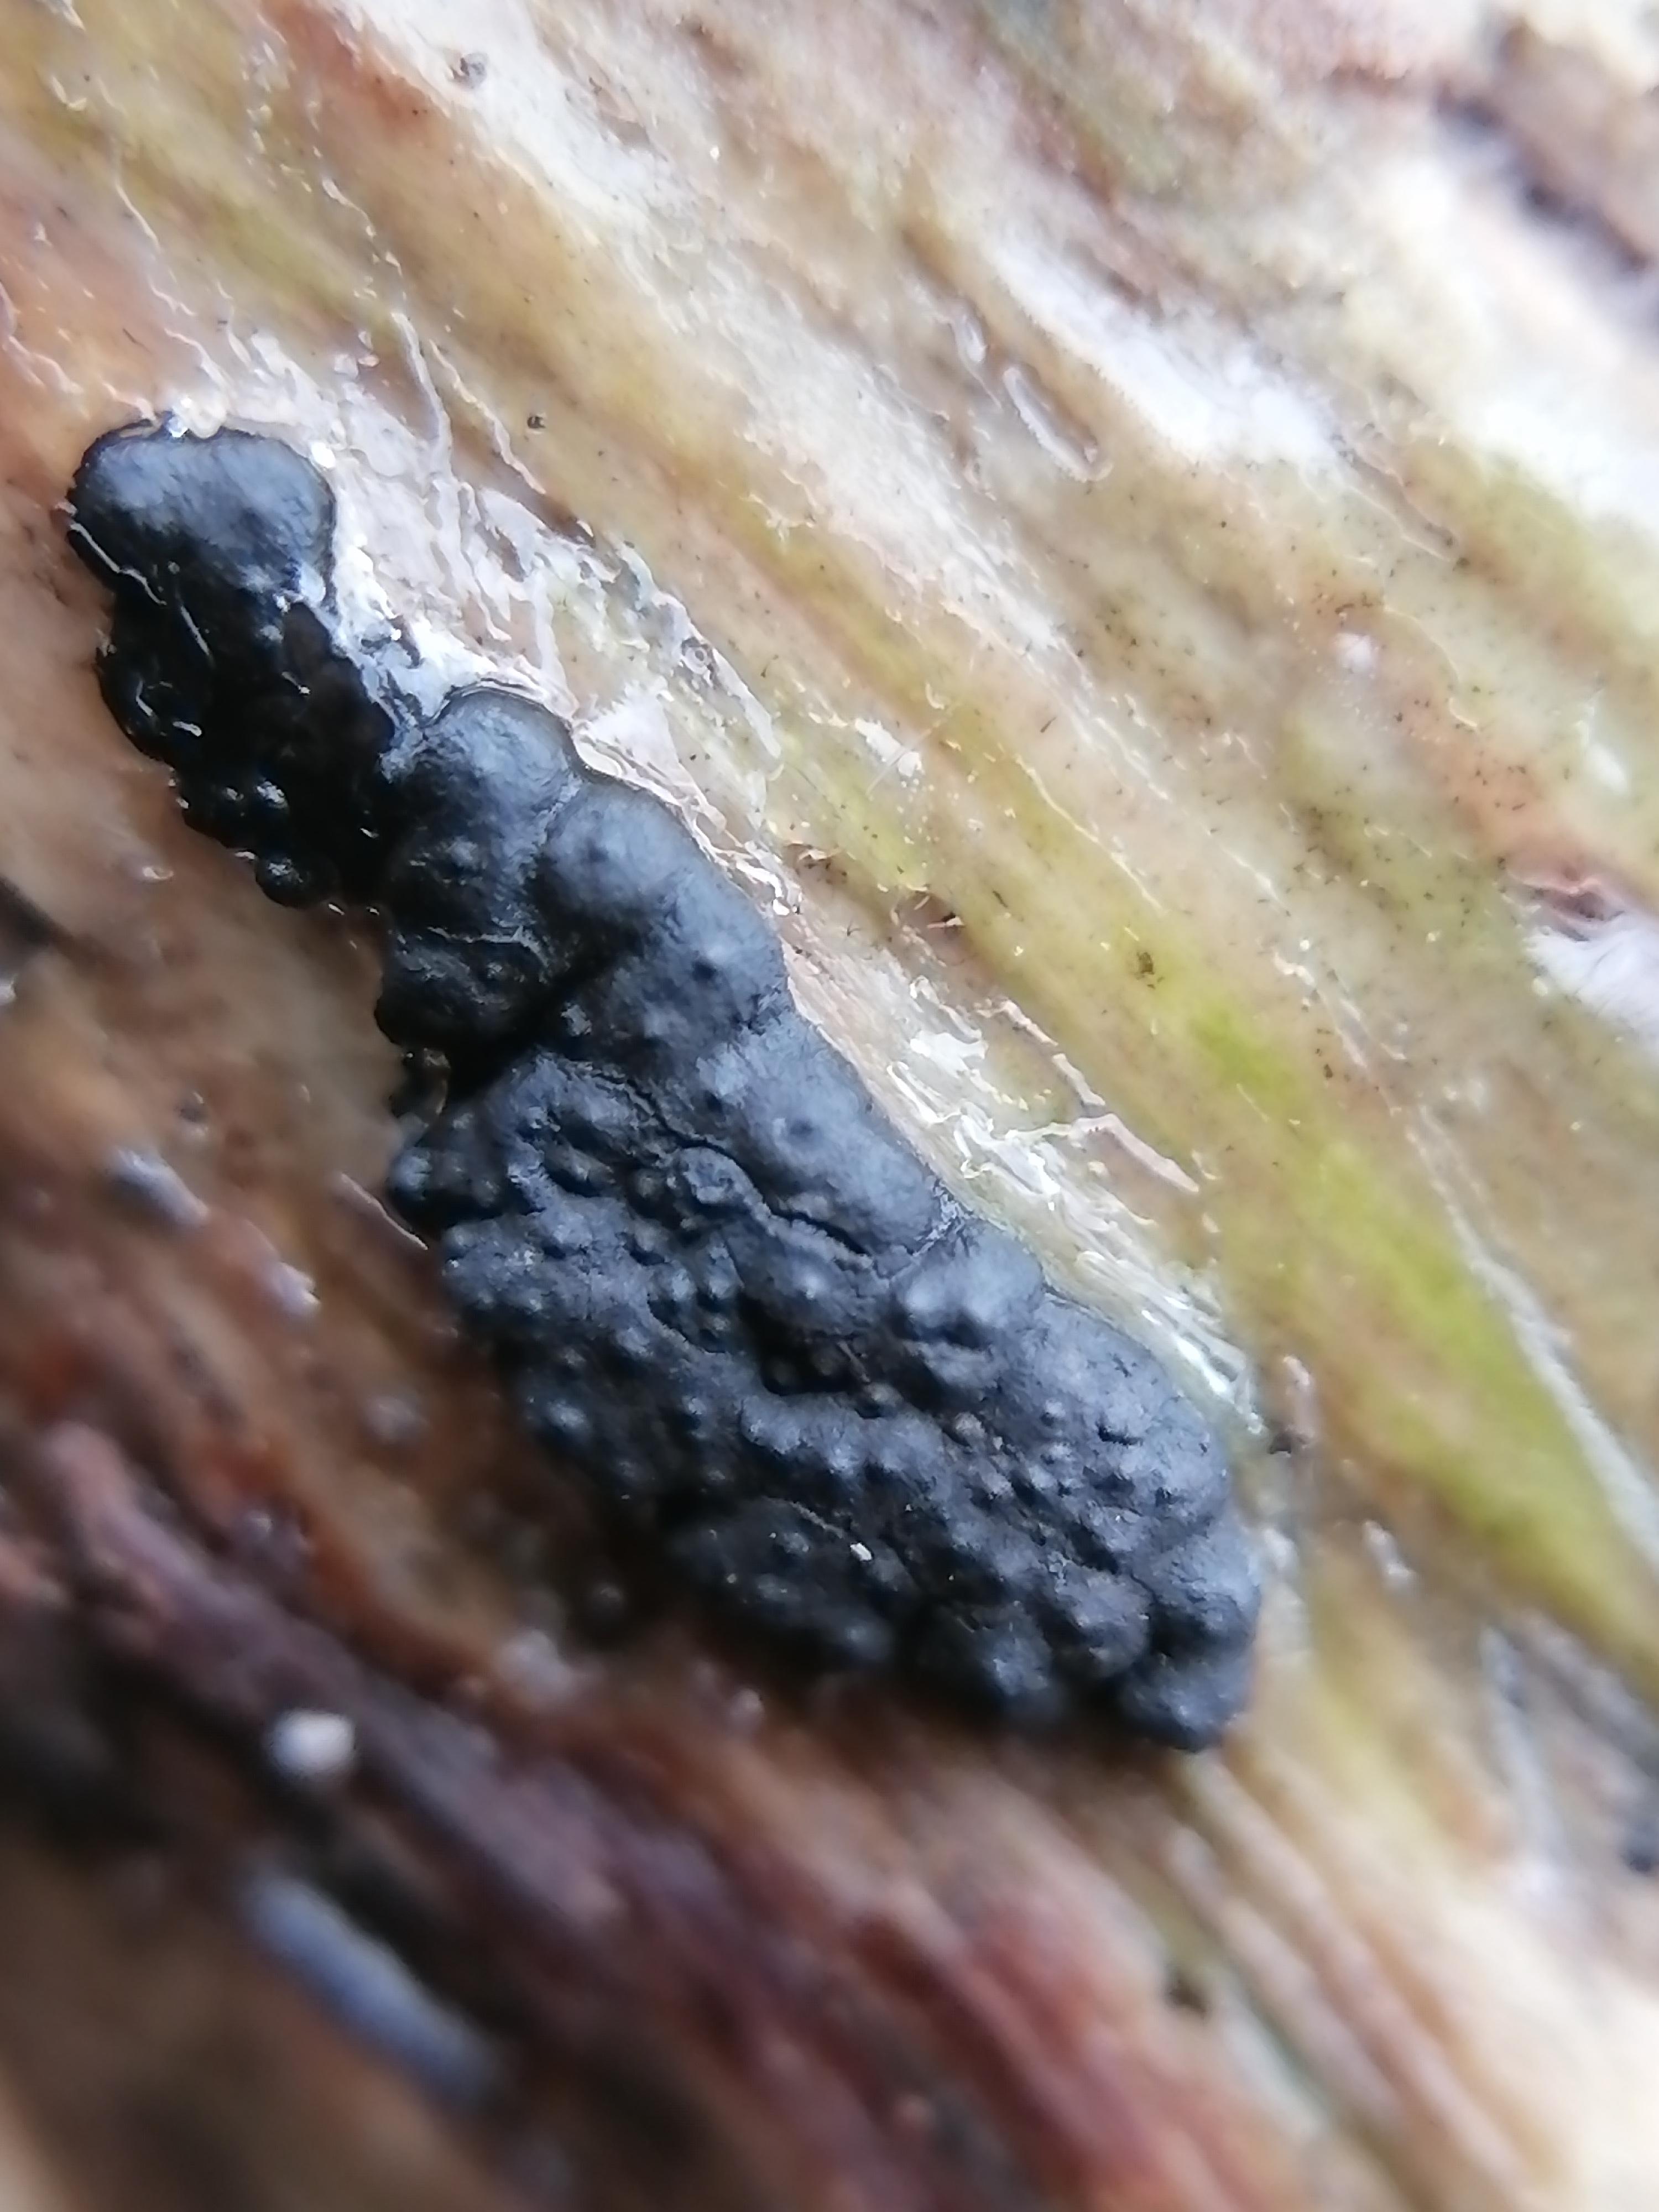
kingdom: Fungi
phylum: Ascomycota
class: Sordariomycetes
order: Xylariales
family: Xylariaceae
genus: Nemania
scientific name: Nemania
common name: kuldyne
